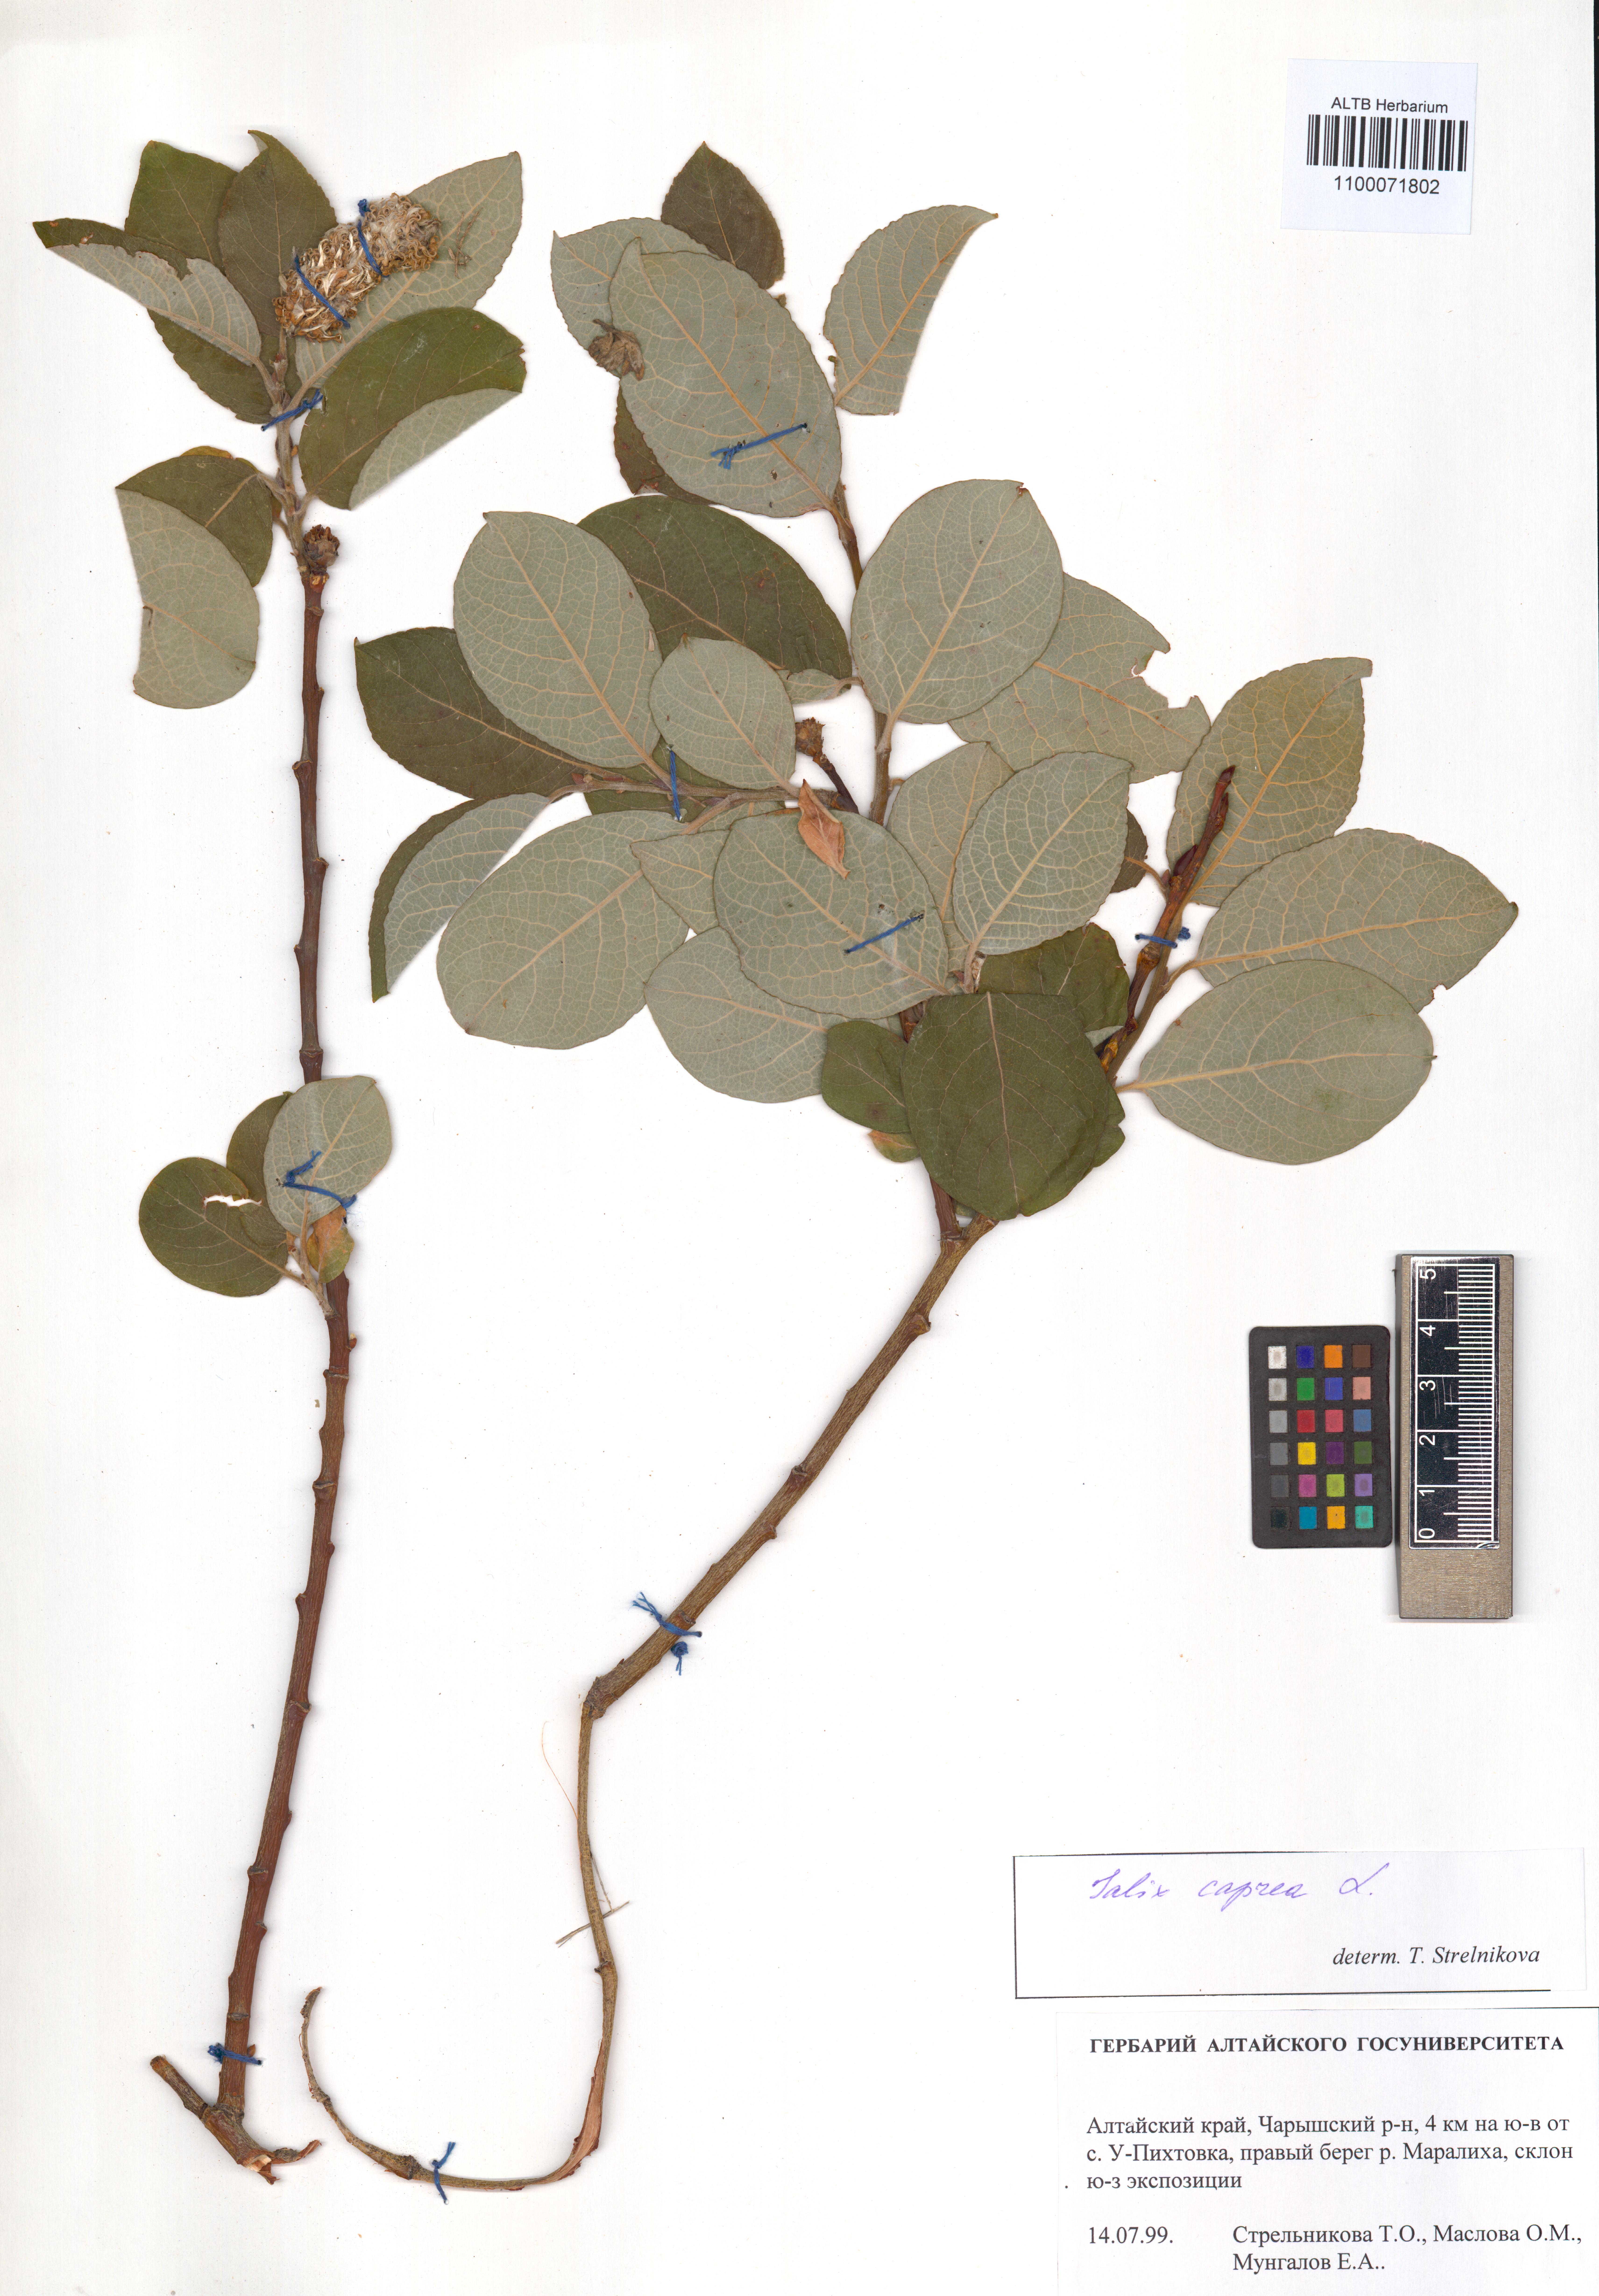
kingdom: Plantae
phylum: Tracheophyta
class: Magnoliopsida
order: Malpighiales
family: Salicaceae
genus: Salix
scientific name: Salix caprea
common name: Goat willow
